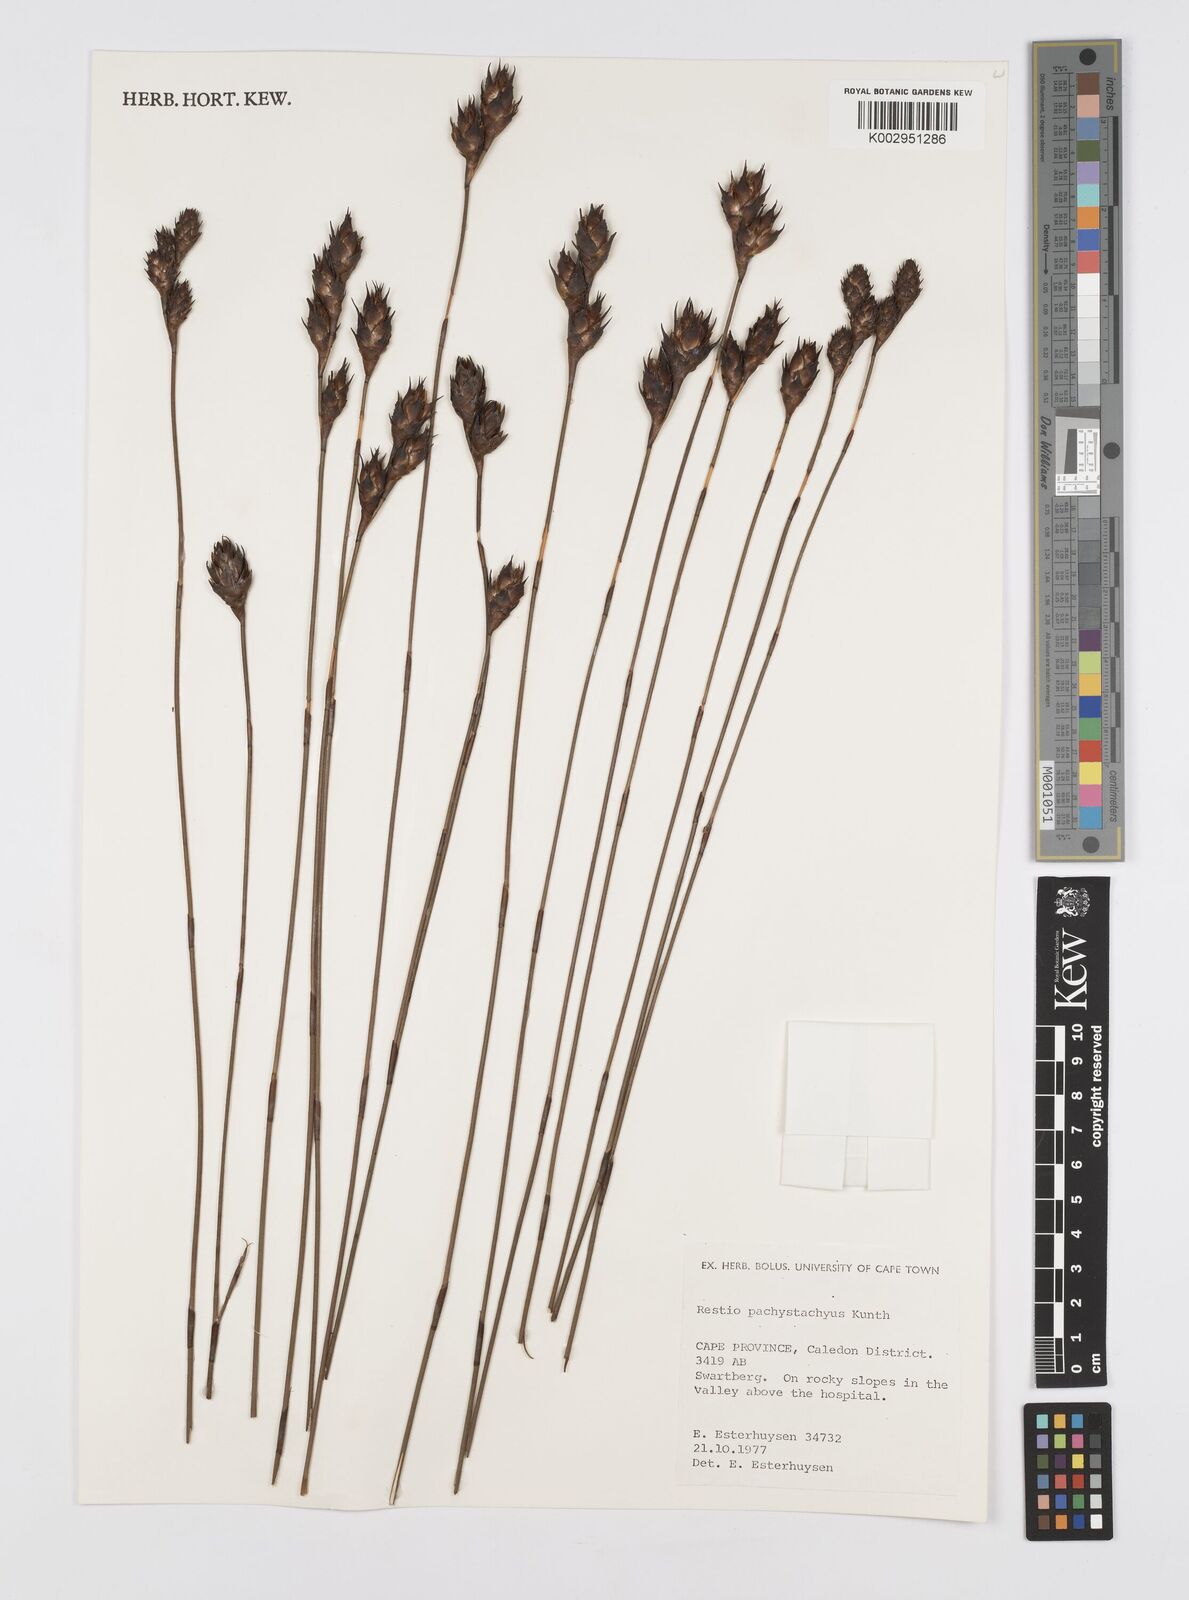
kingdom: Plantae
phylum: Tracheophyta
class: Liliopsida
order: Poales
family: Restionaceae
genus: Restio
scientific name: Restio pachystachyus
